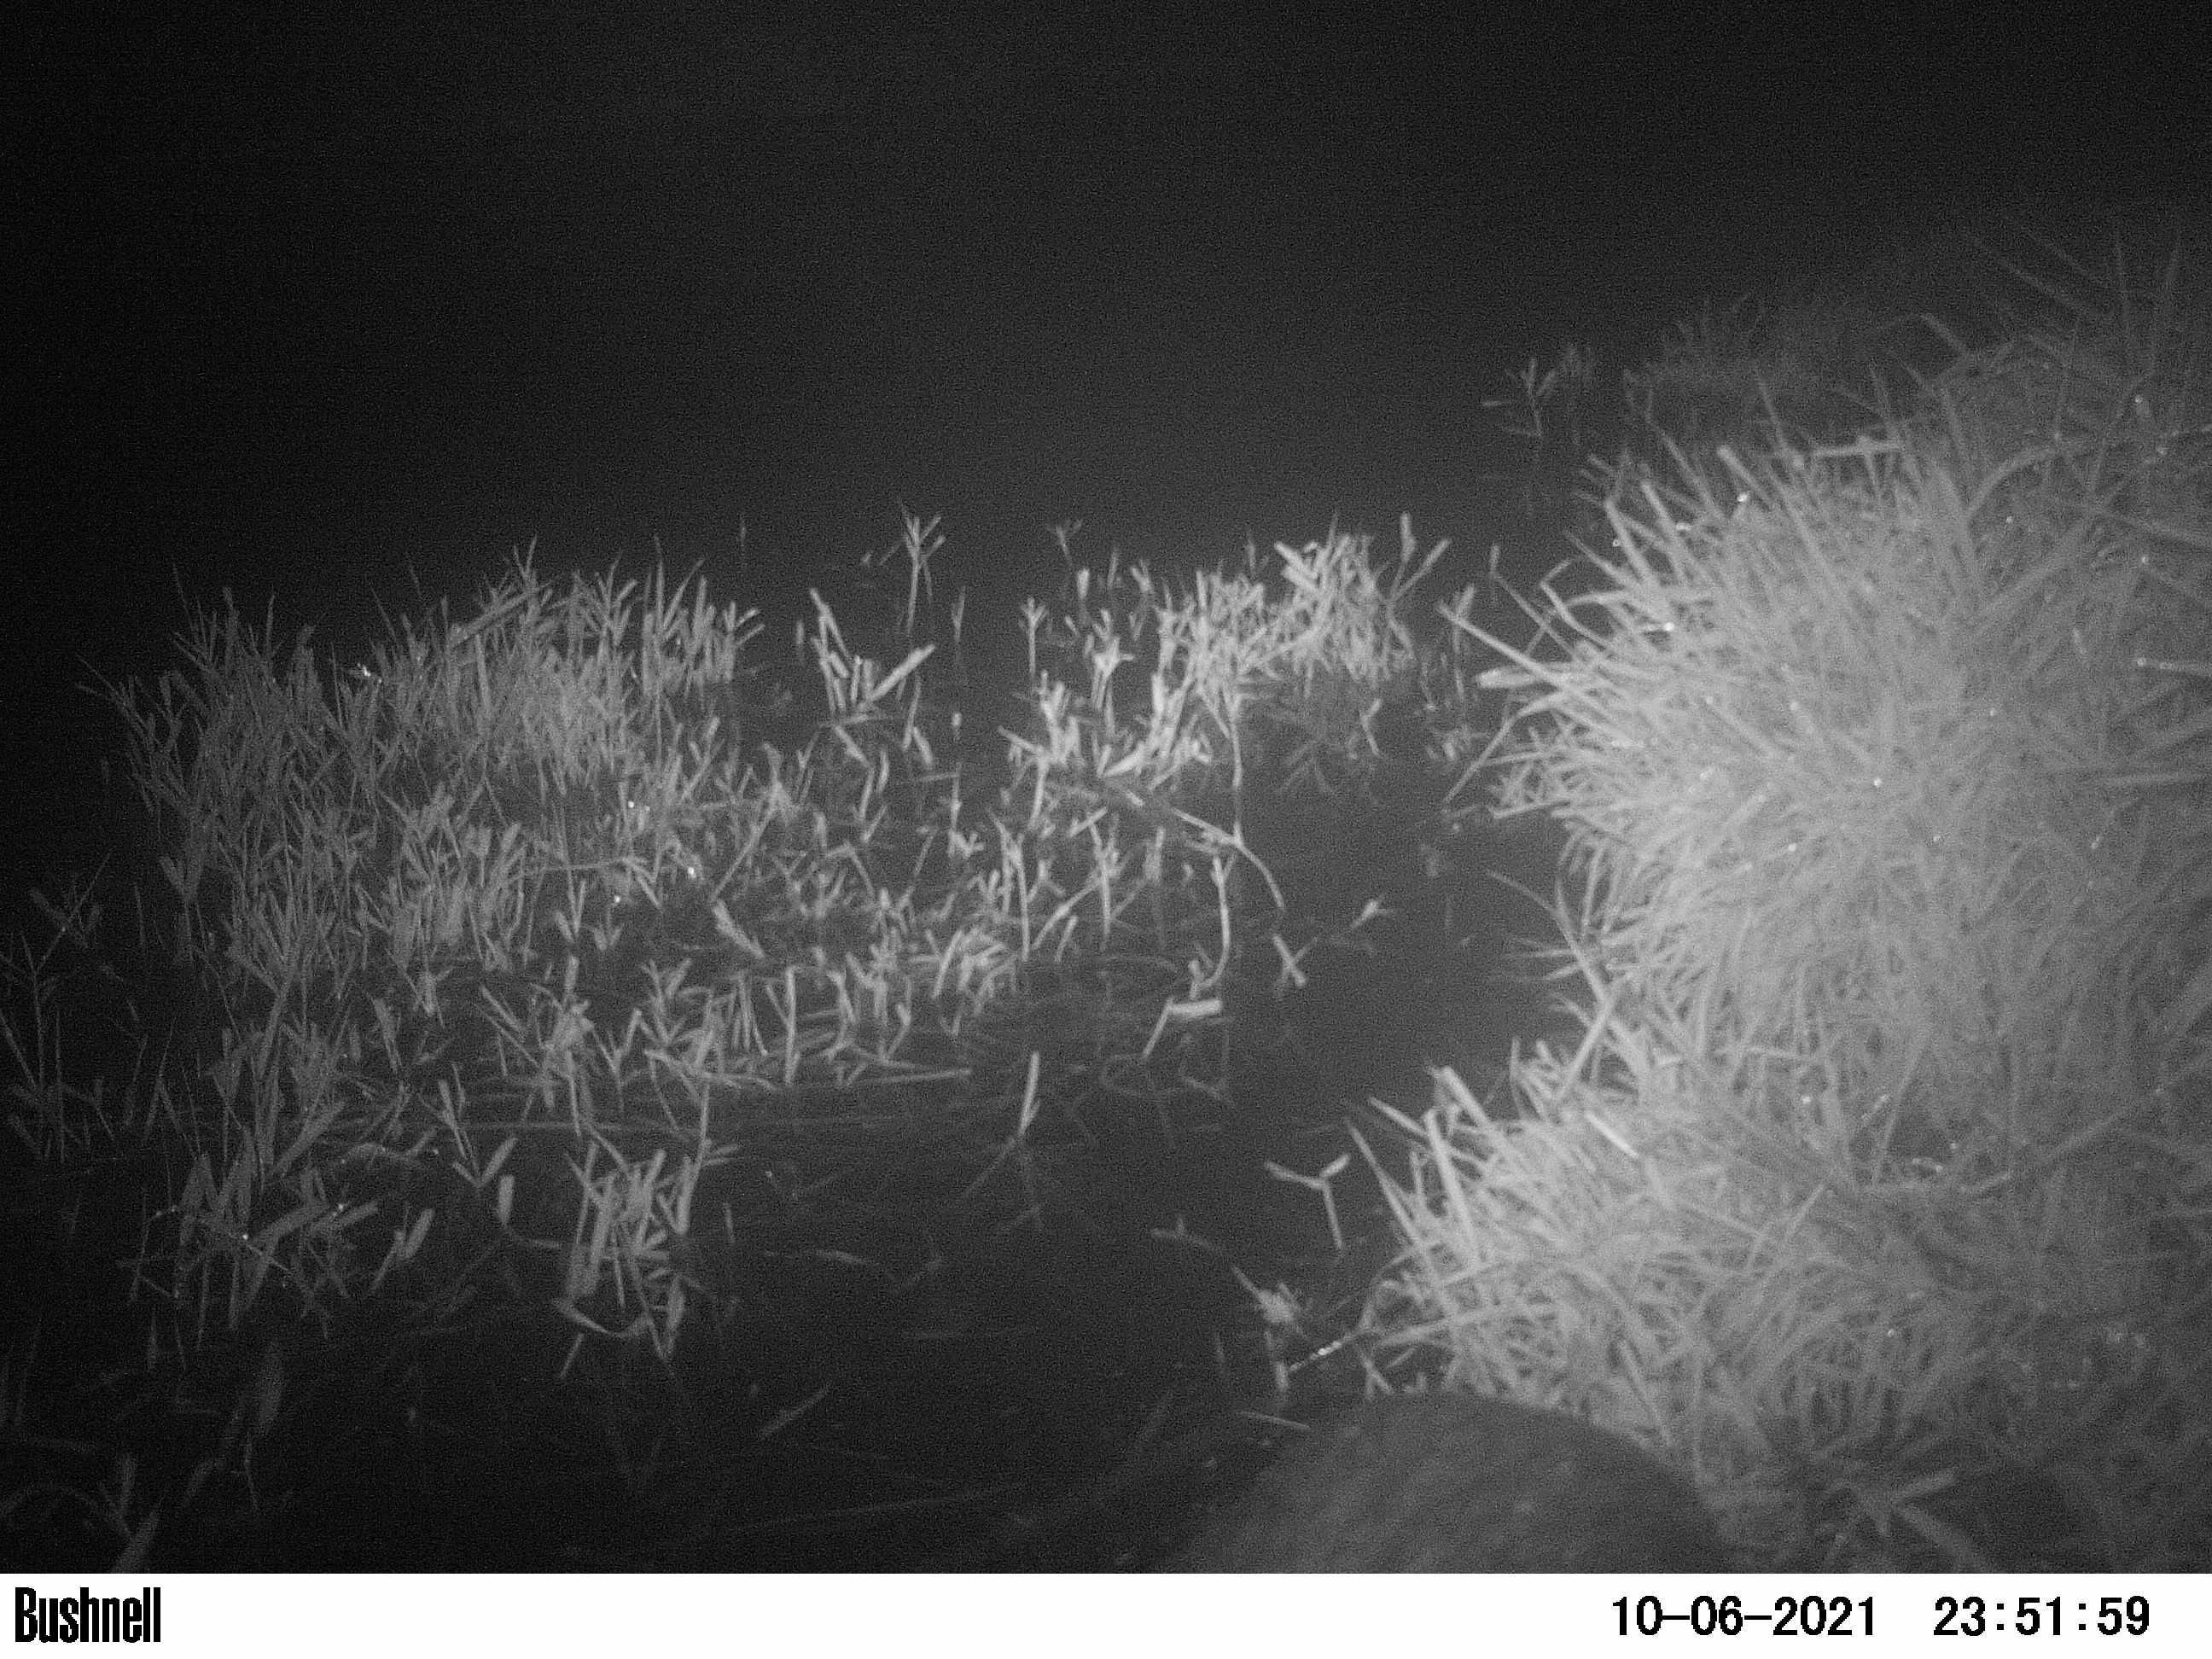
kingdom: Animalia
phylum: Chordata
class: Mammalia
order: Rodentia
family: Myocastoridae
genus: Myocastor
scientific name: Myocastor coypus
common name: Coypu
